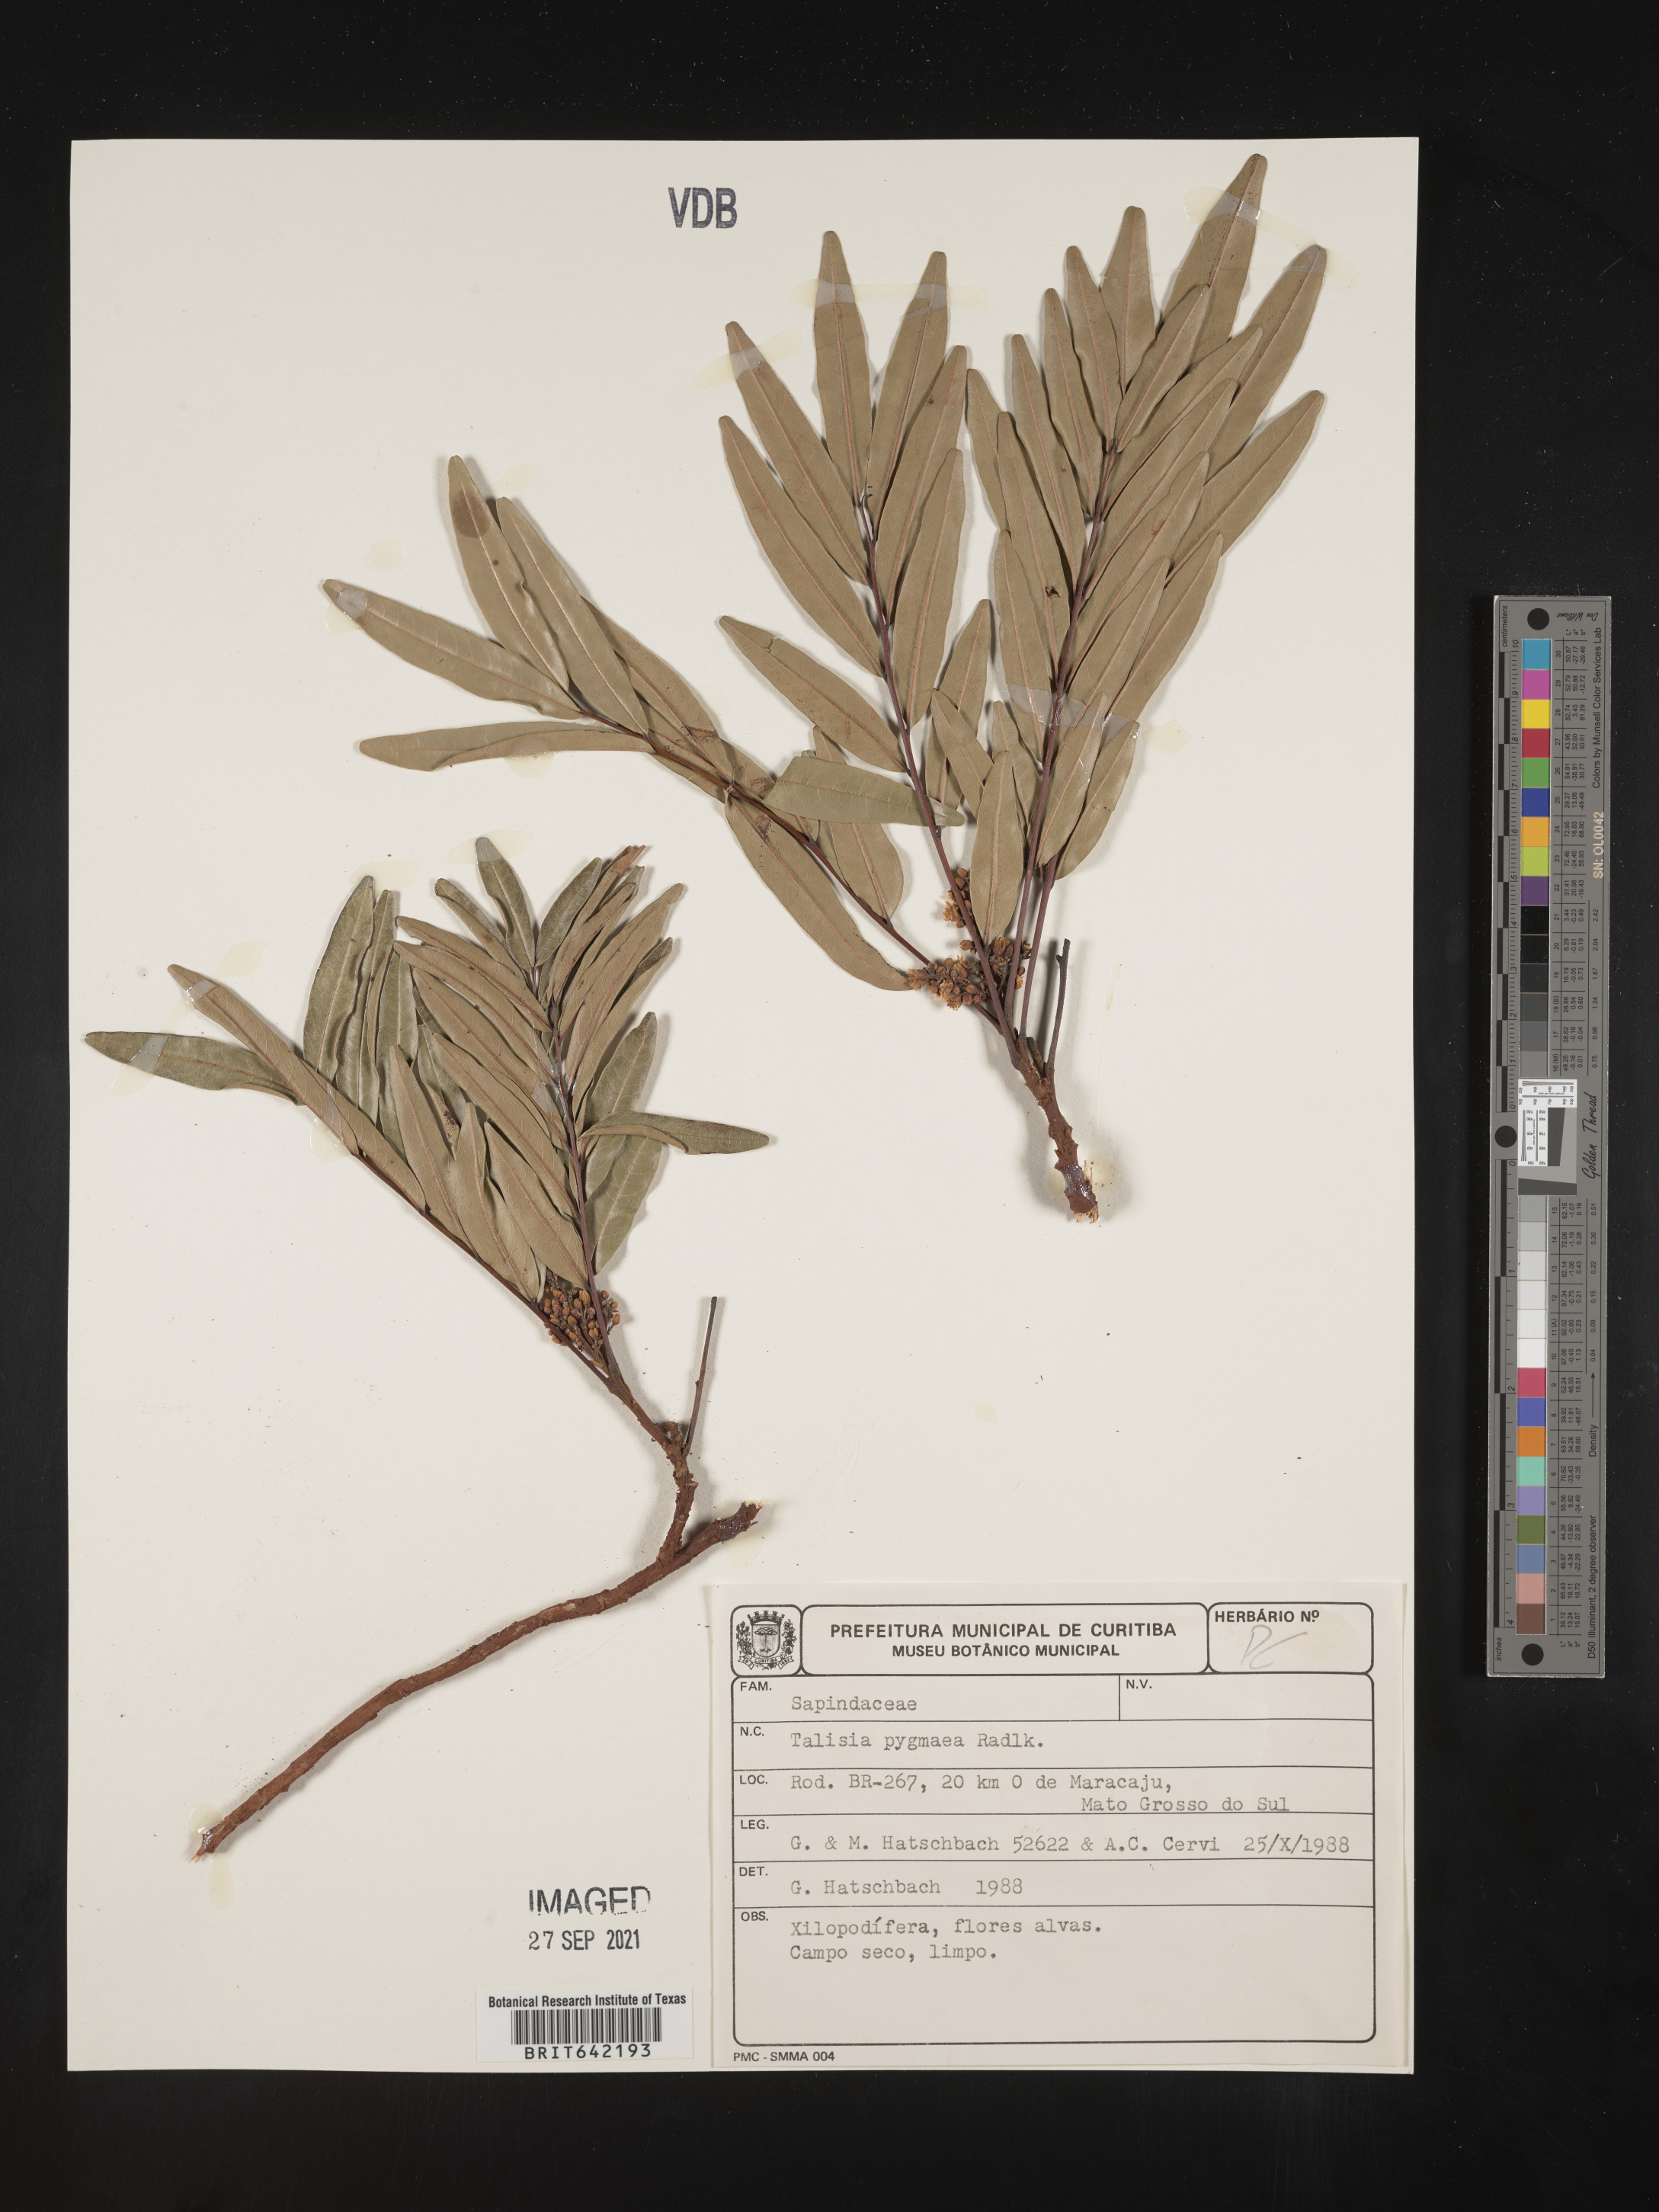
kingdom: Plantae
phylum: Tracheophyta
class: Magnoliopsida
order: Sapindales
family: Sapindaceae
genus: Talisia
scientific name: Talisia
